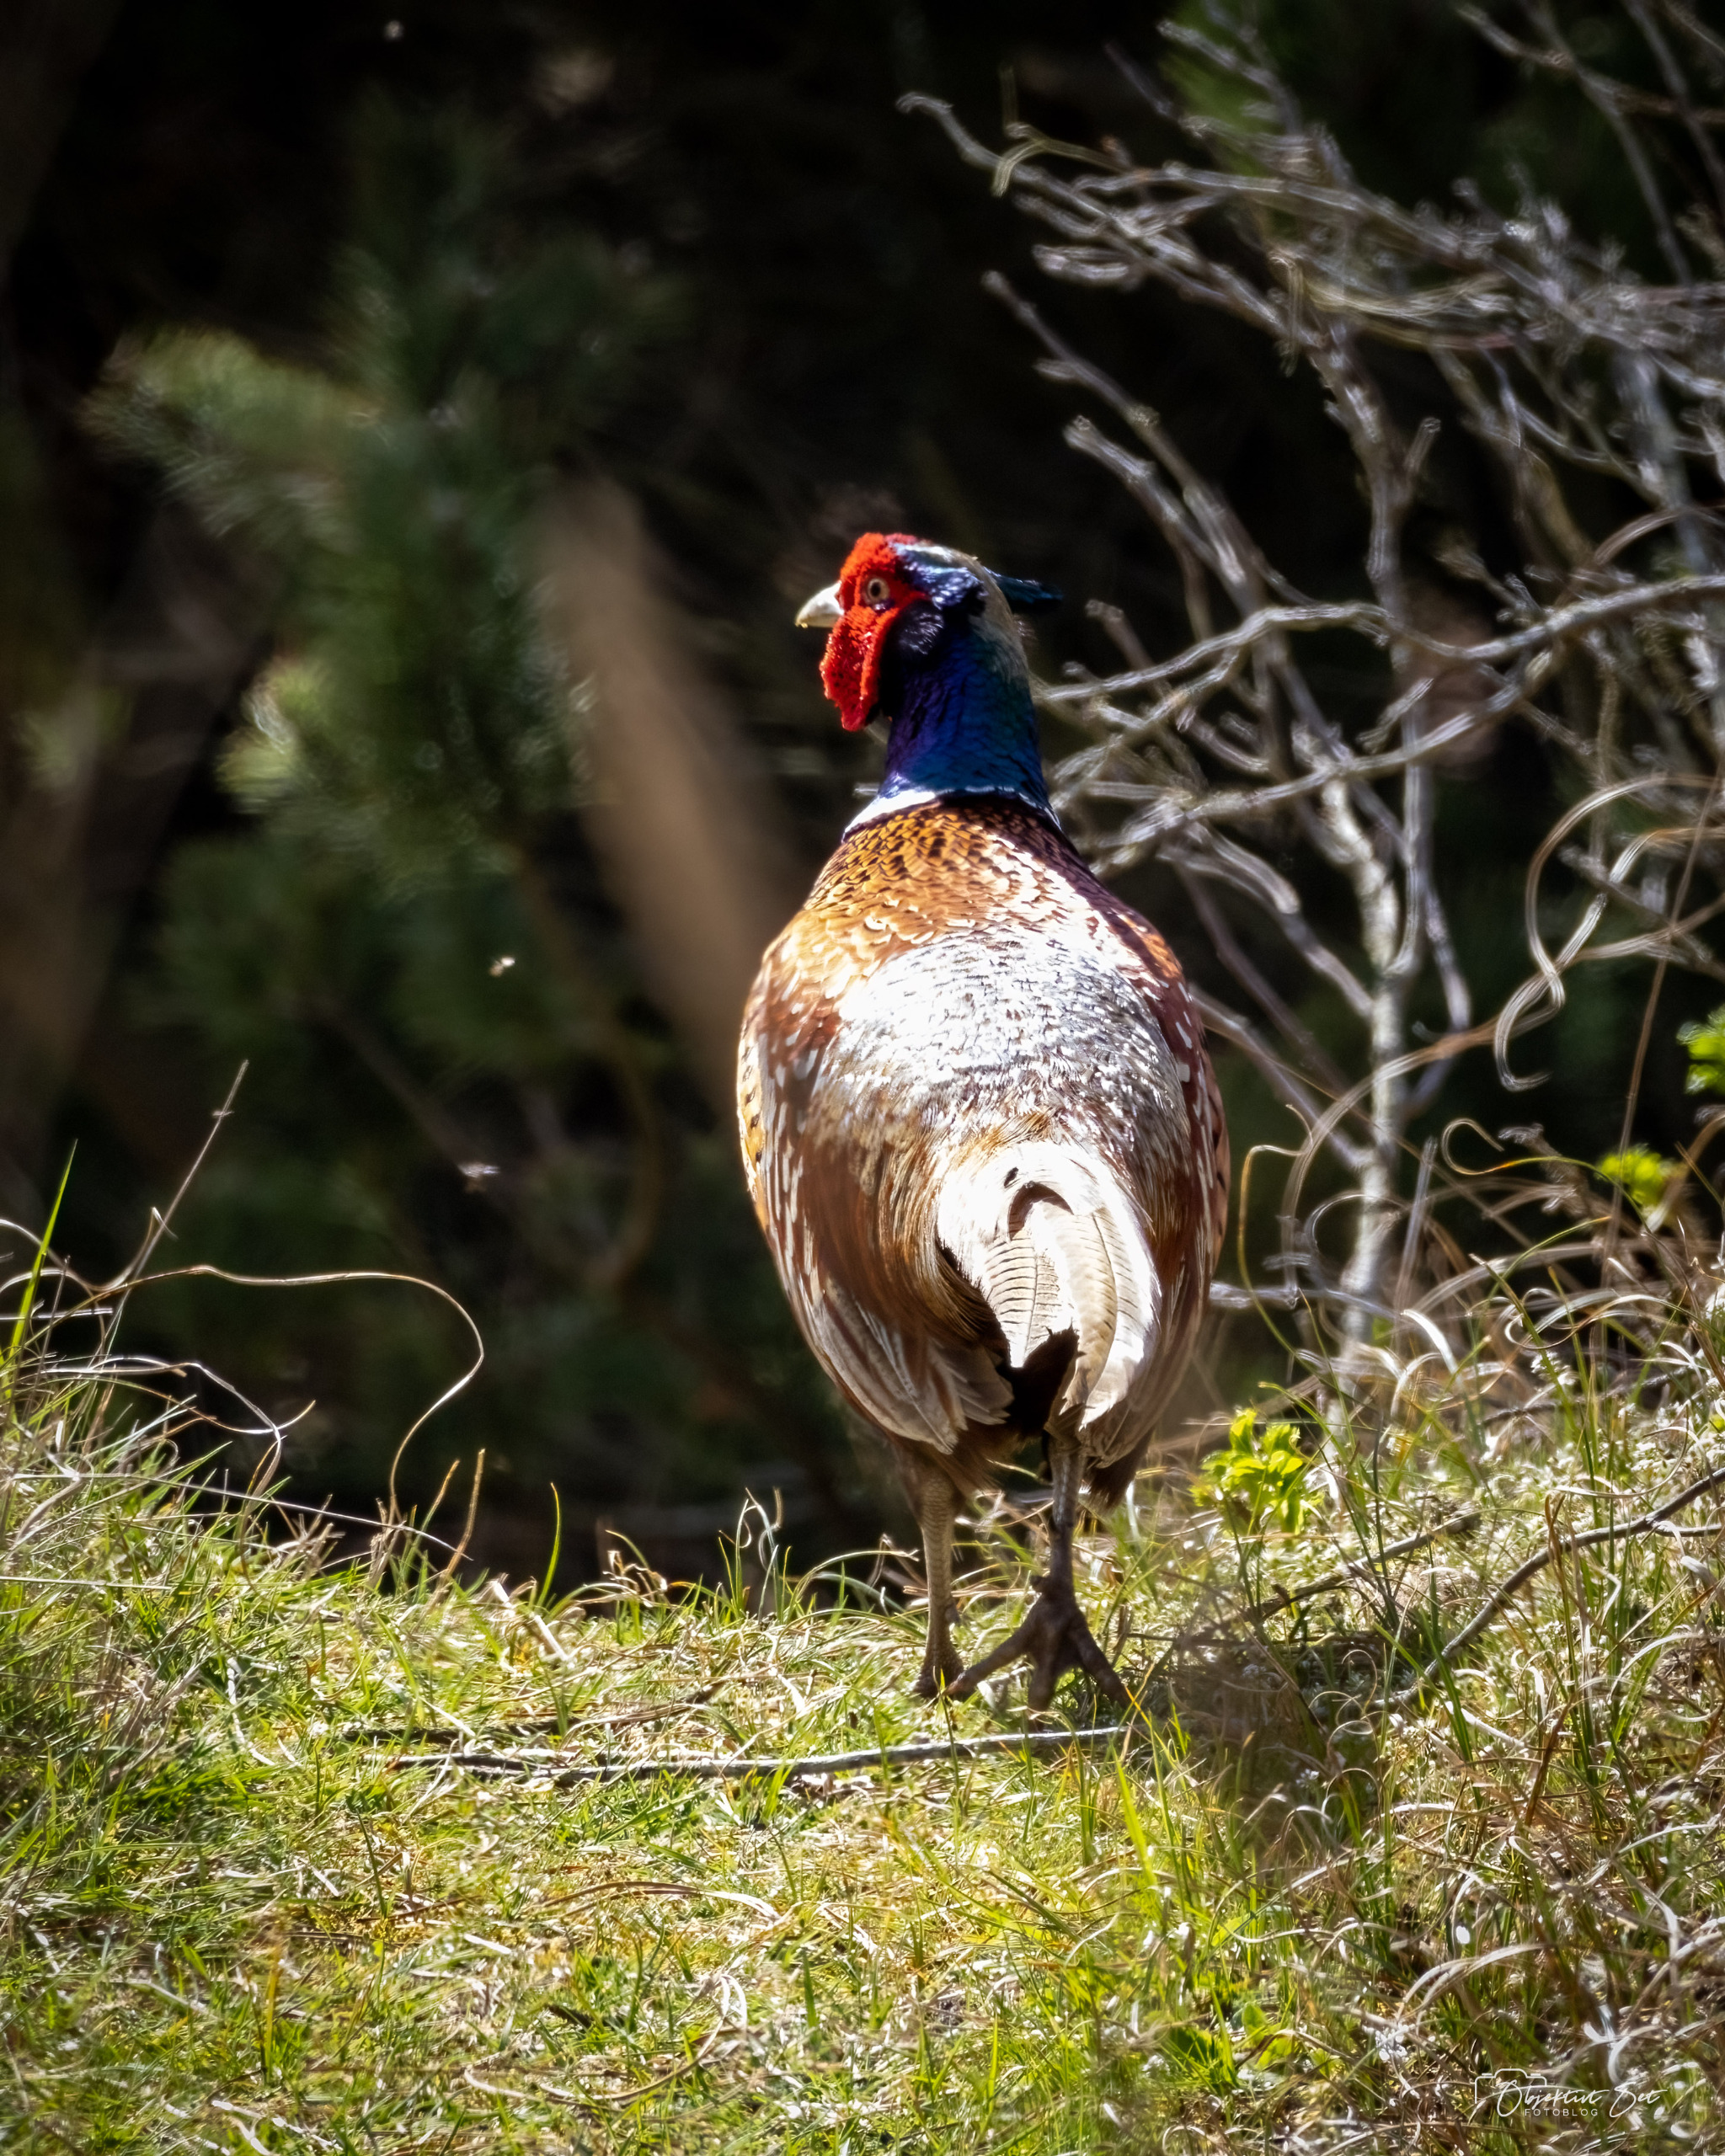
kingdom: Animalia
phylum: Chordata
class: Aves
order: Galliformes
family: Phasianidae
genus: Phasianus
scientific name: Phasianus colchicus
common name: Fasan
